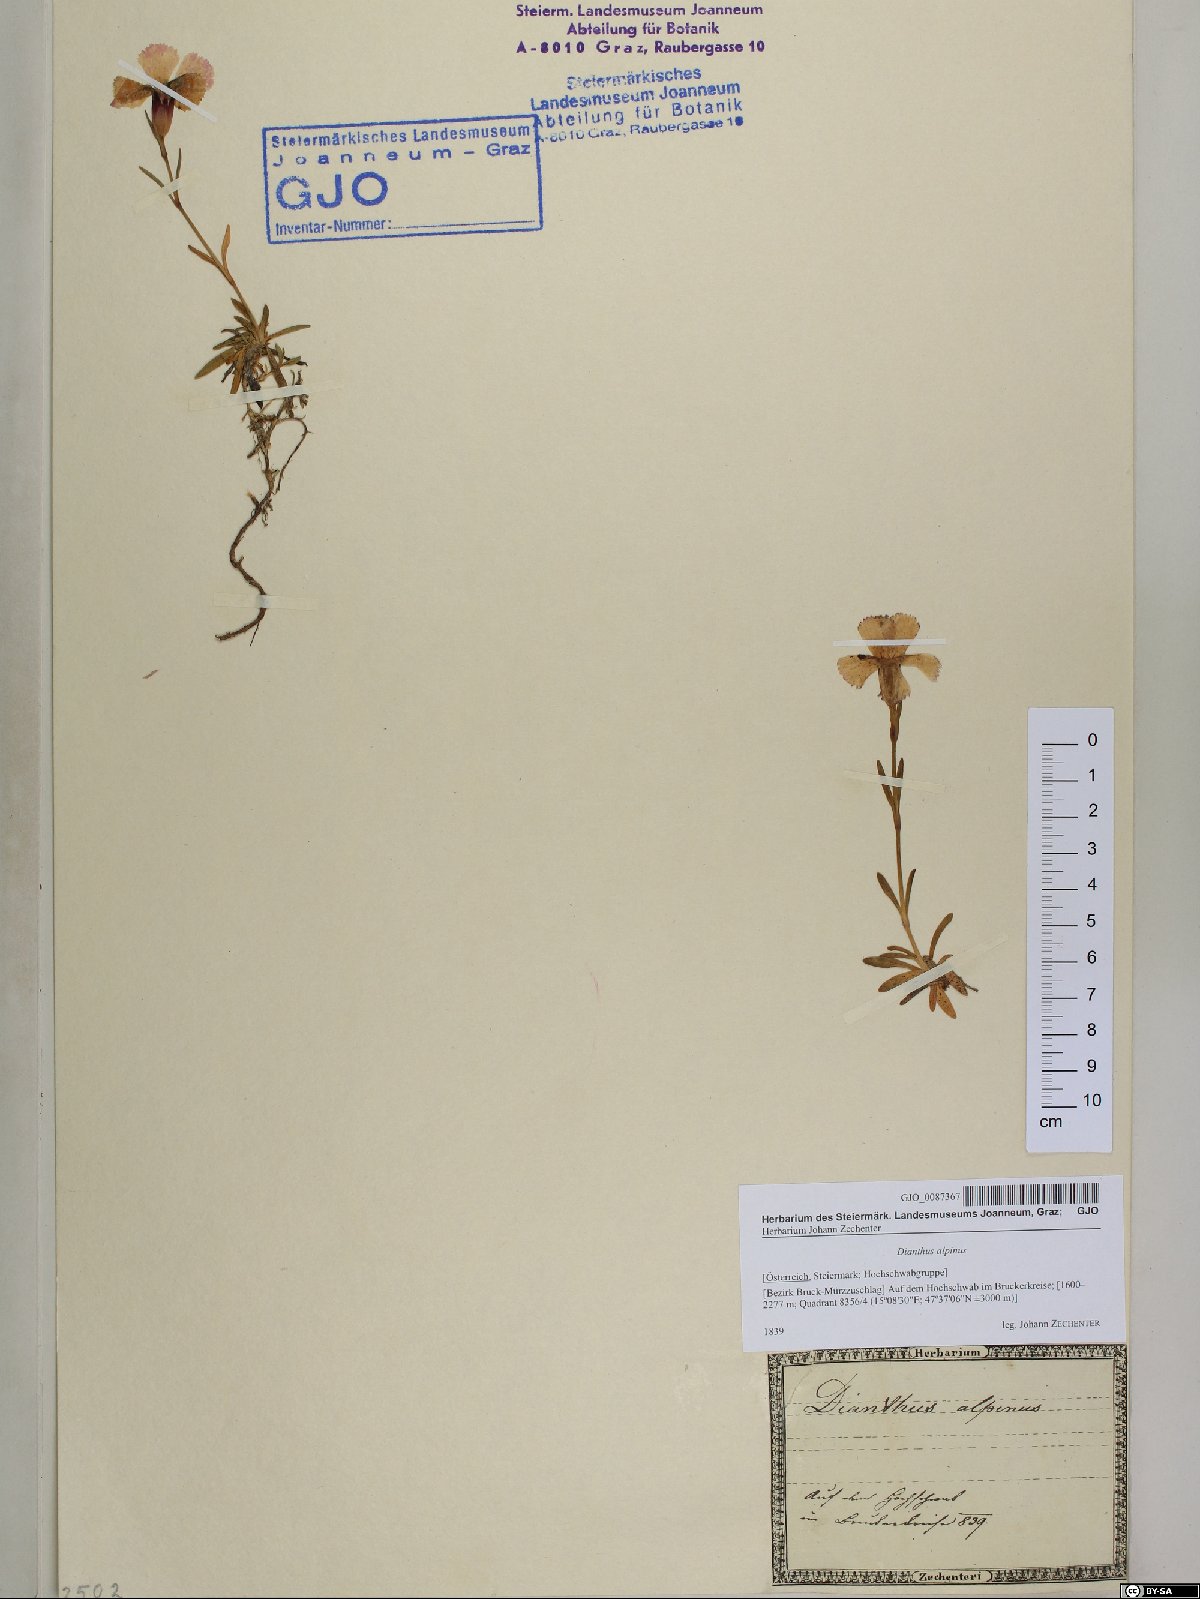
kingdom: Plantae
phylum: Tracheophyta
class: Magnoliopsida
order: Caryophyllales
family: Caryophyllaceae
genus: Dianthus
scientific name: Dianthus alpinus
